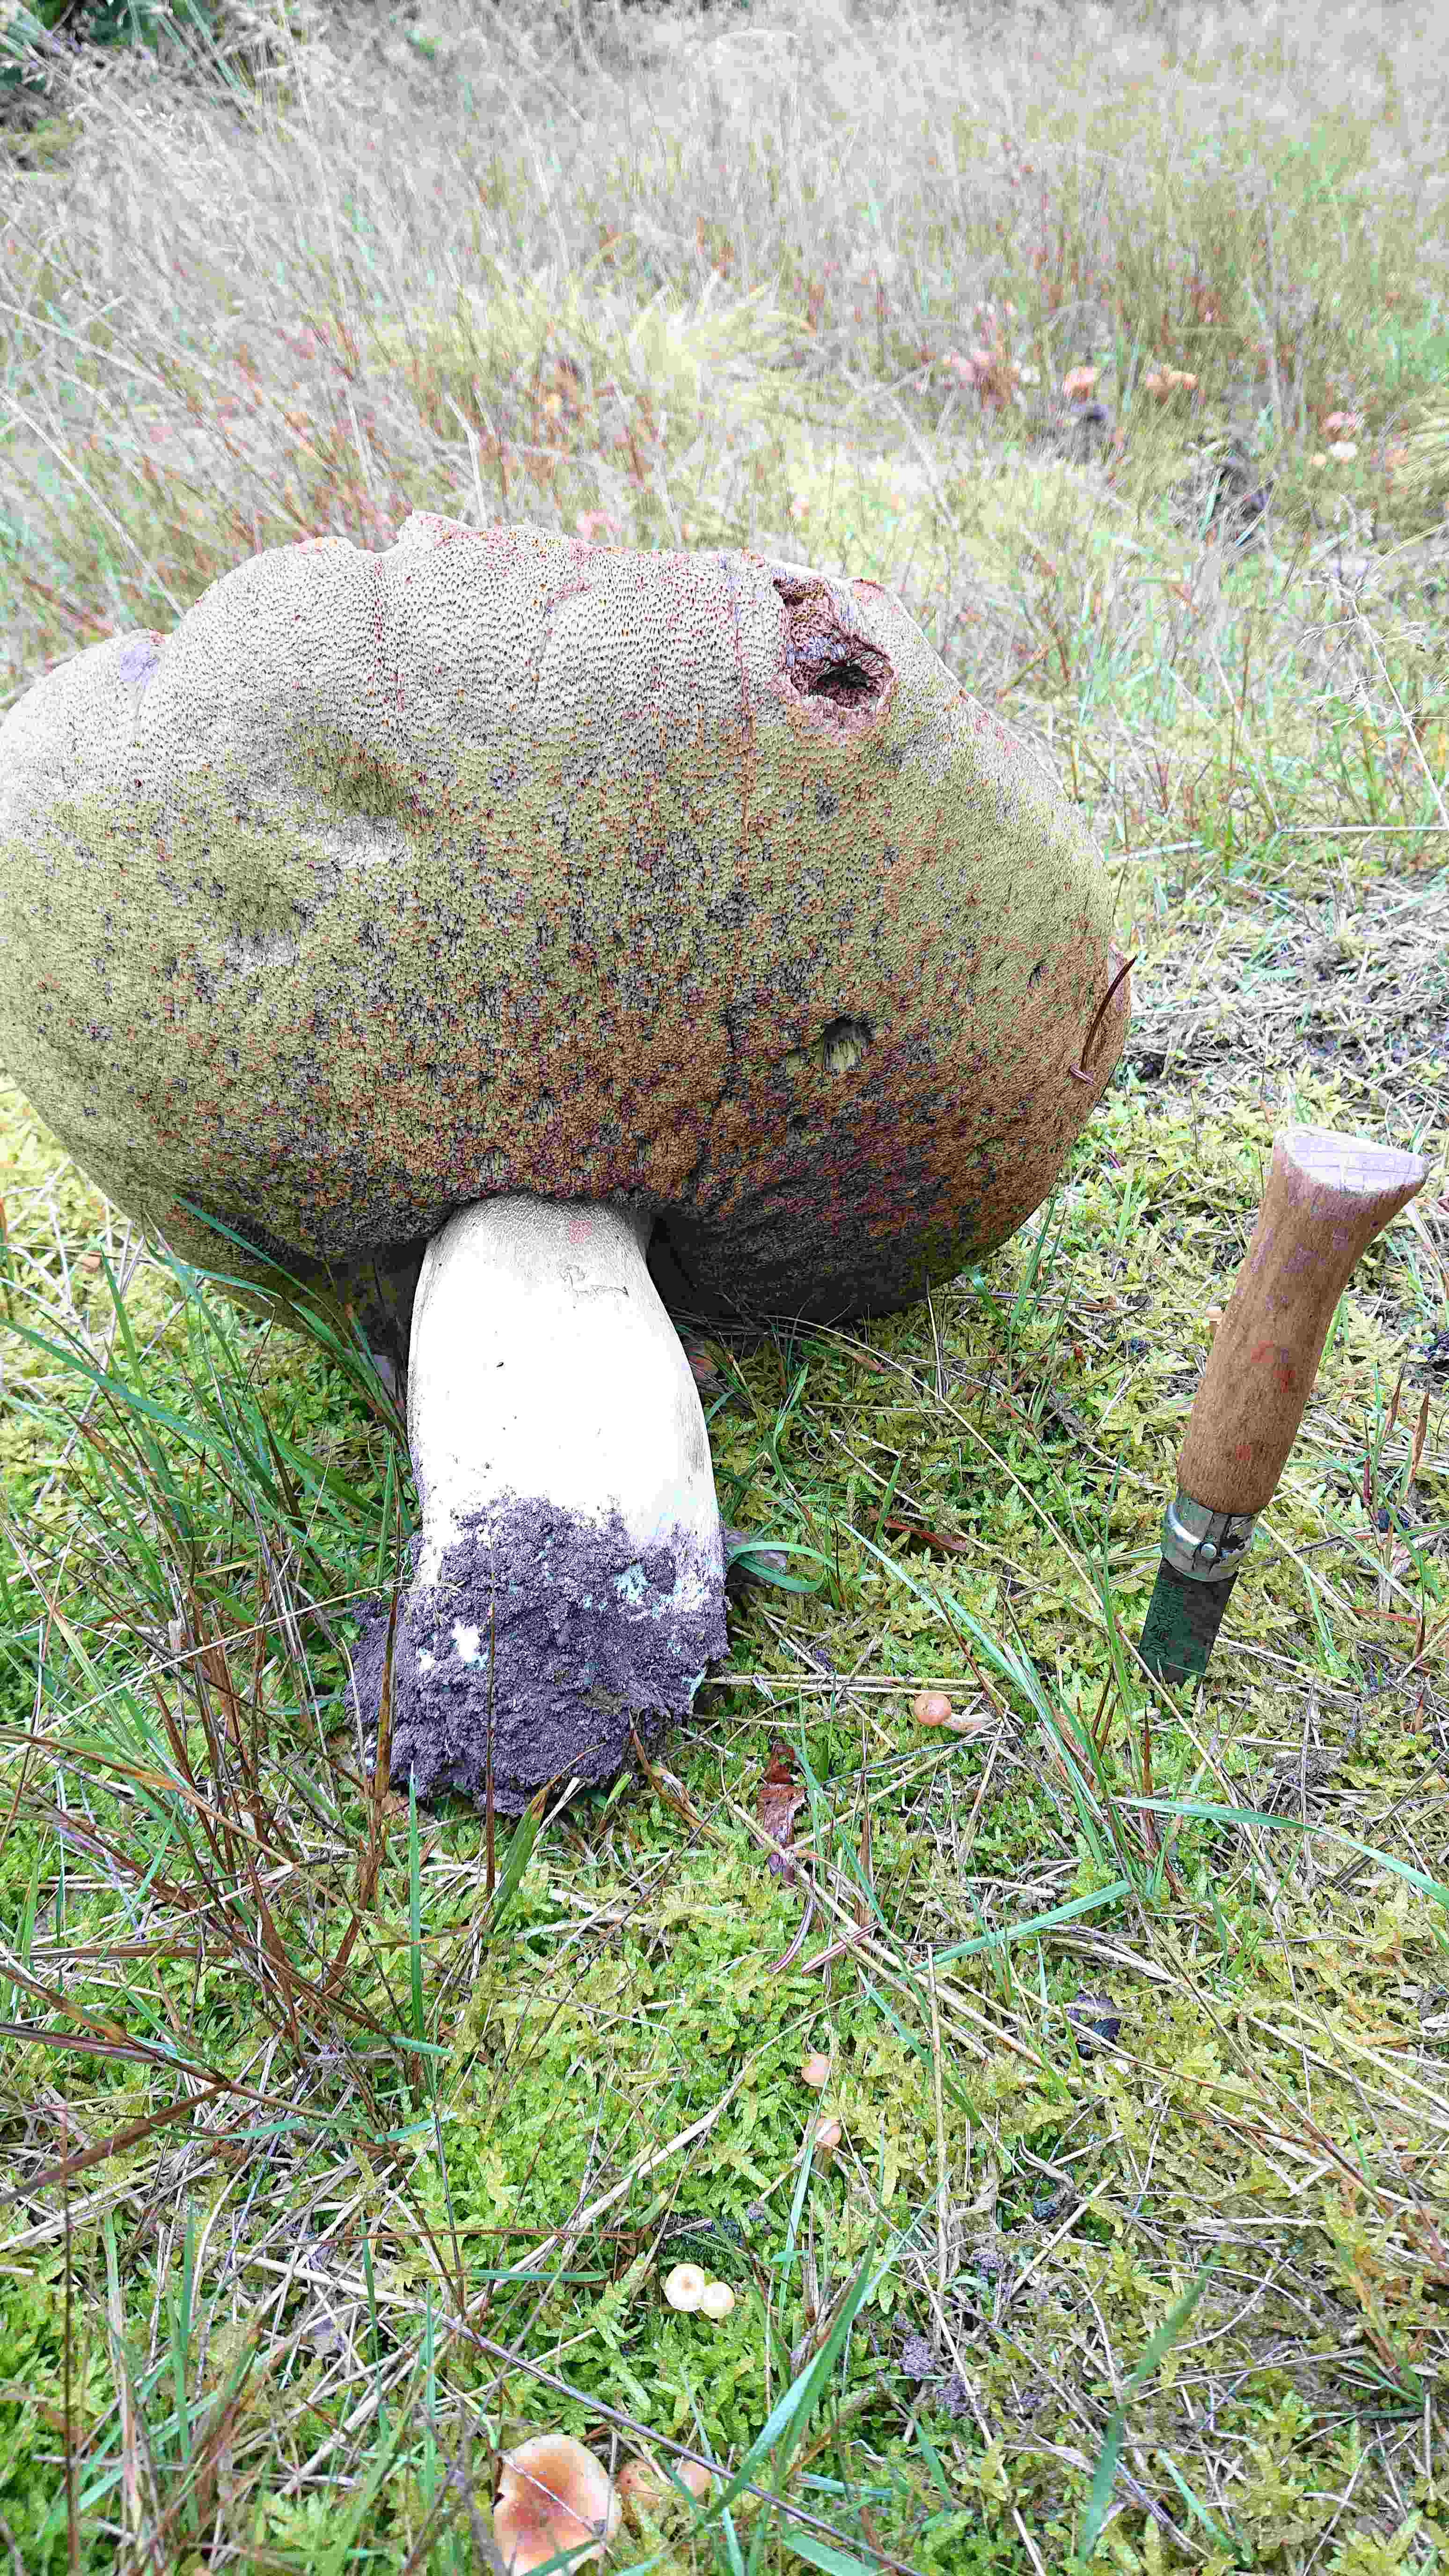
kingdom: Fungi
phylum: Basidiomycota
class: Agaricomycetes
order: Boletales
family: Boletaceae
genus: Boletus
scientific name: Boletus edulis
